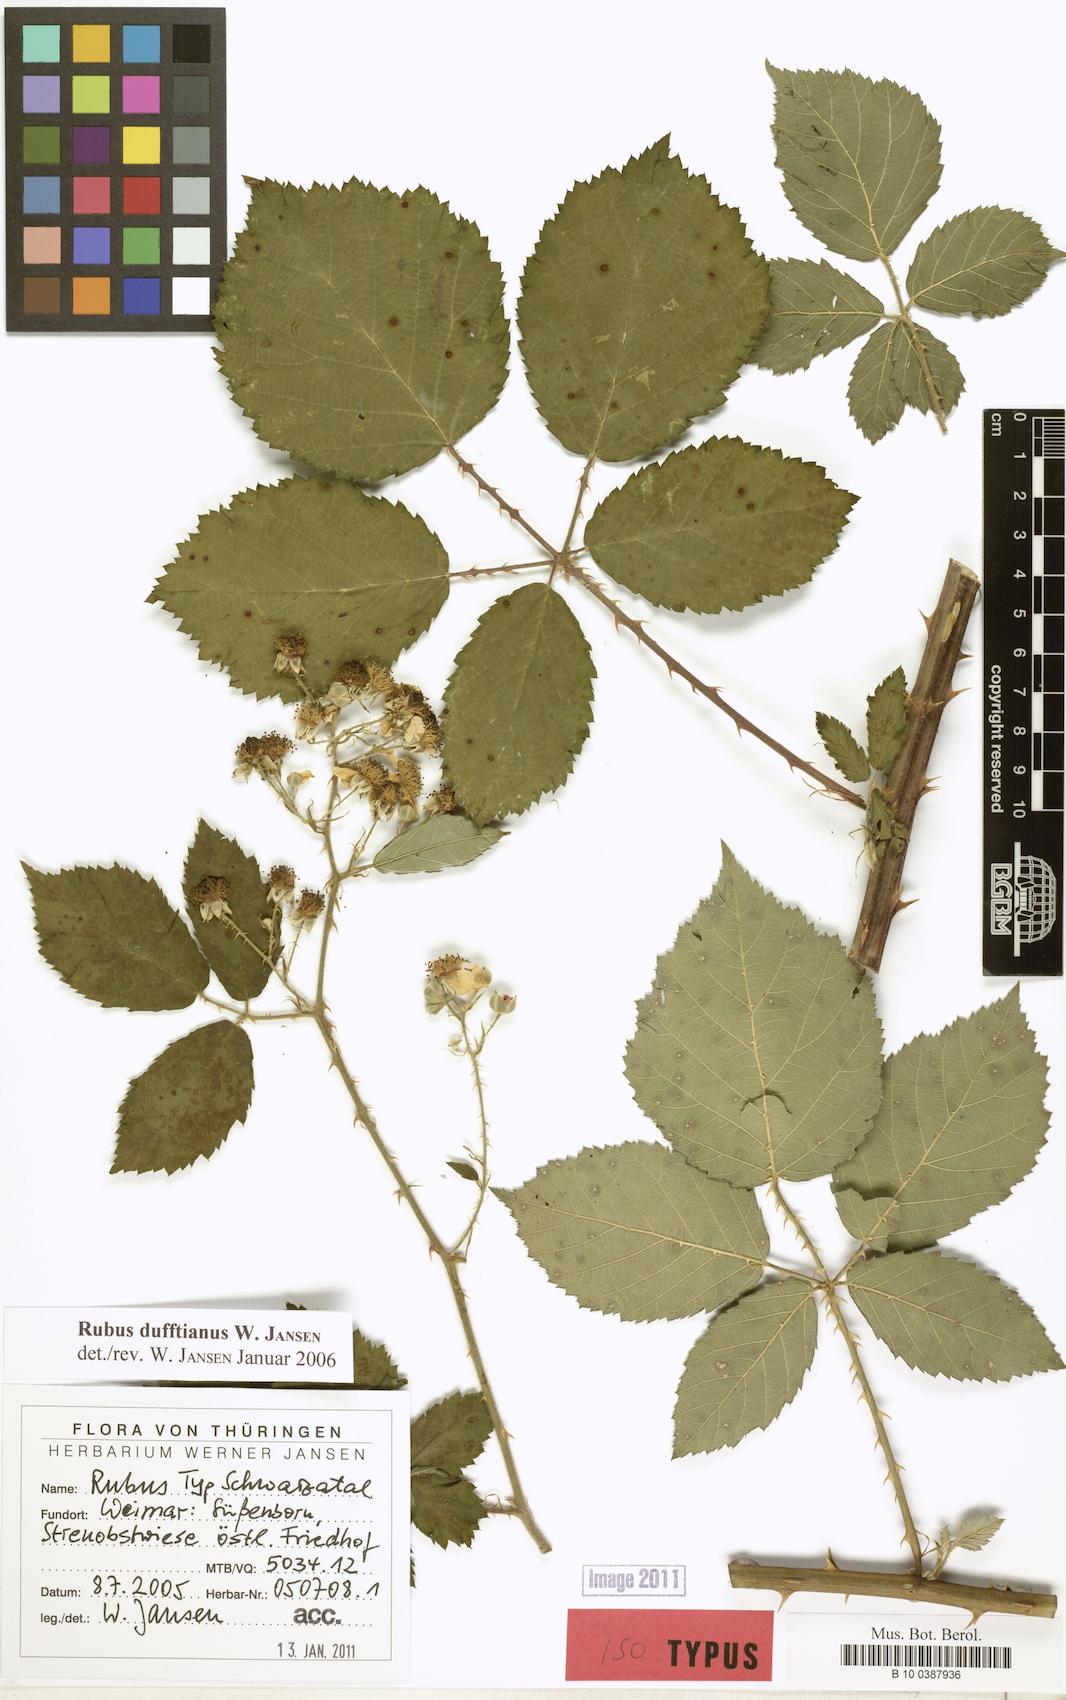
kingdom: Plantae
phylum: Tracheophyta
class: Magnoliopsida
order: Rosales
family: Rosaceae
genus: Rubus
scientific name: Rubus dufftianus
